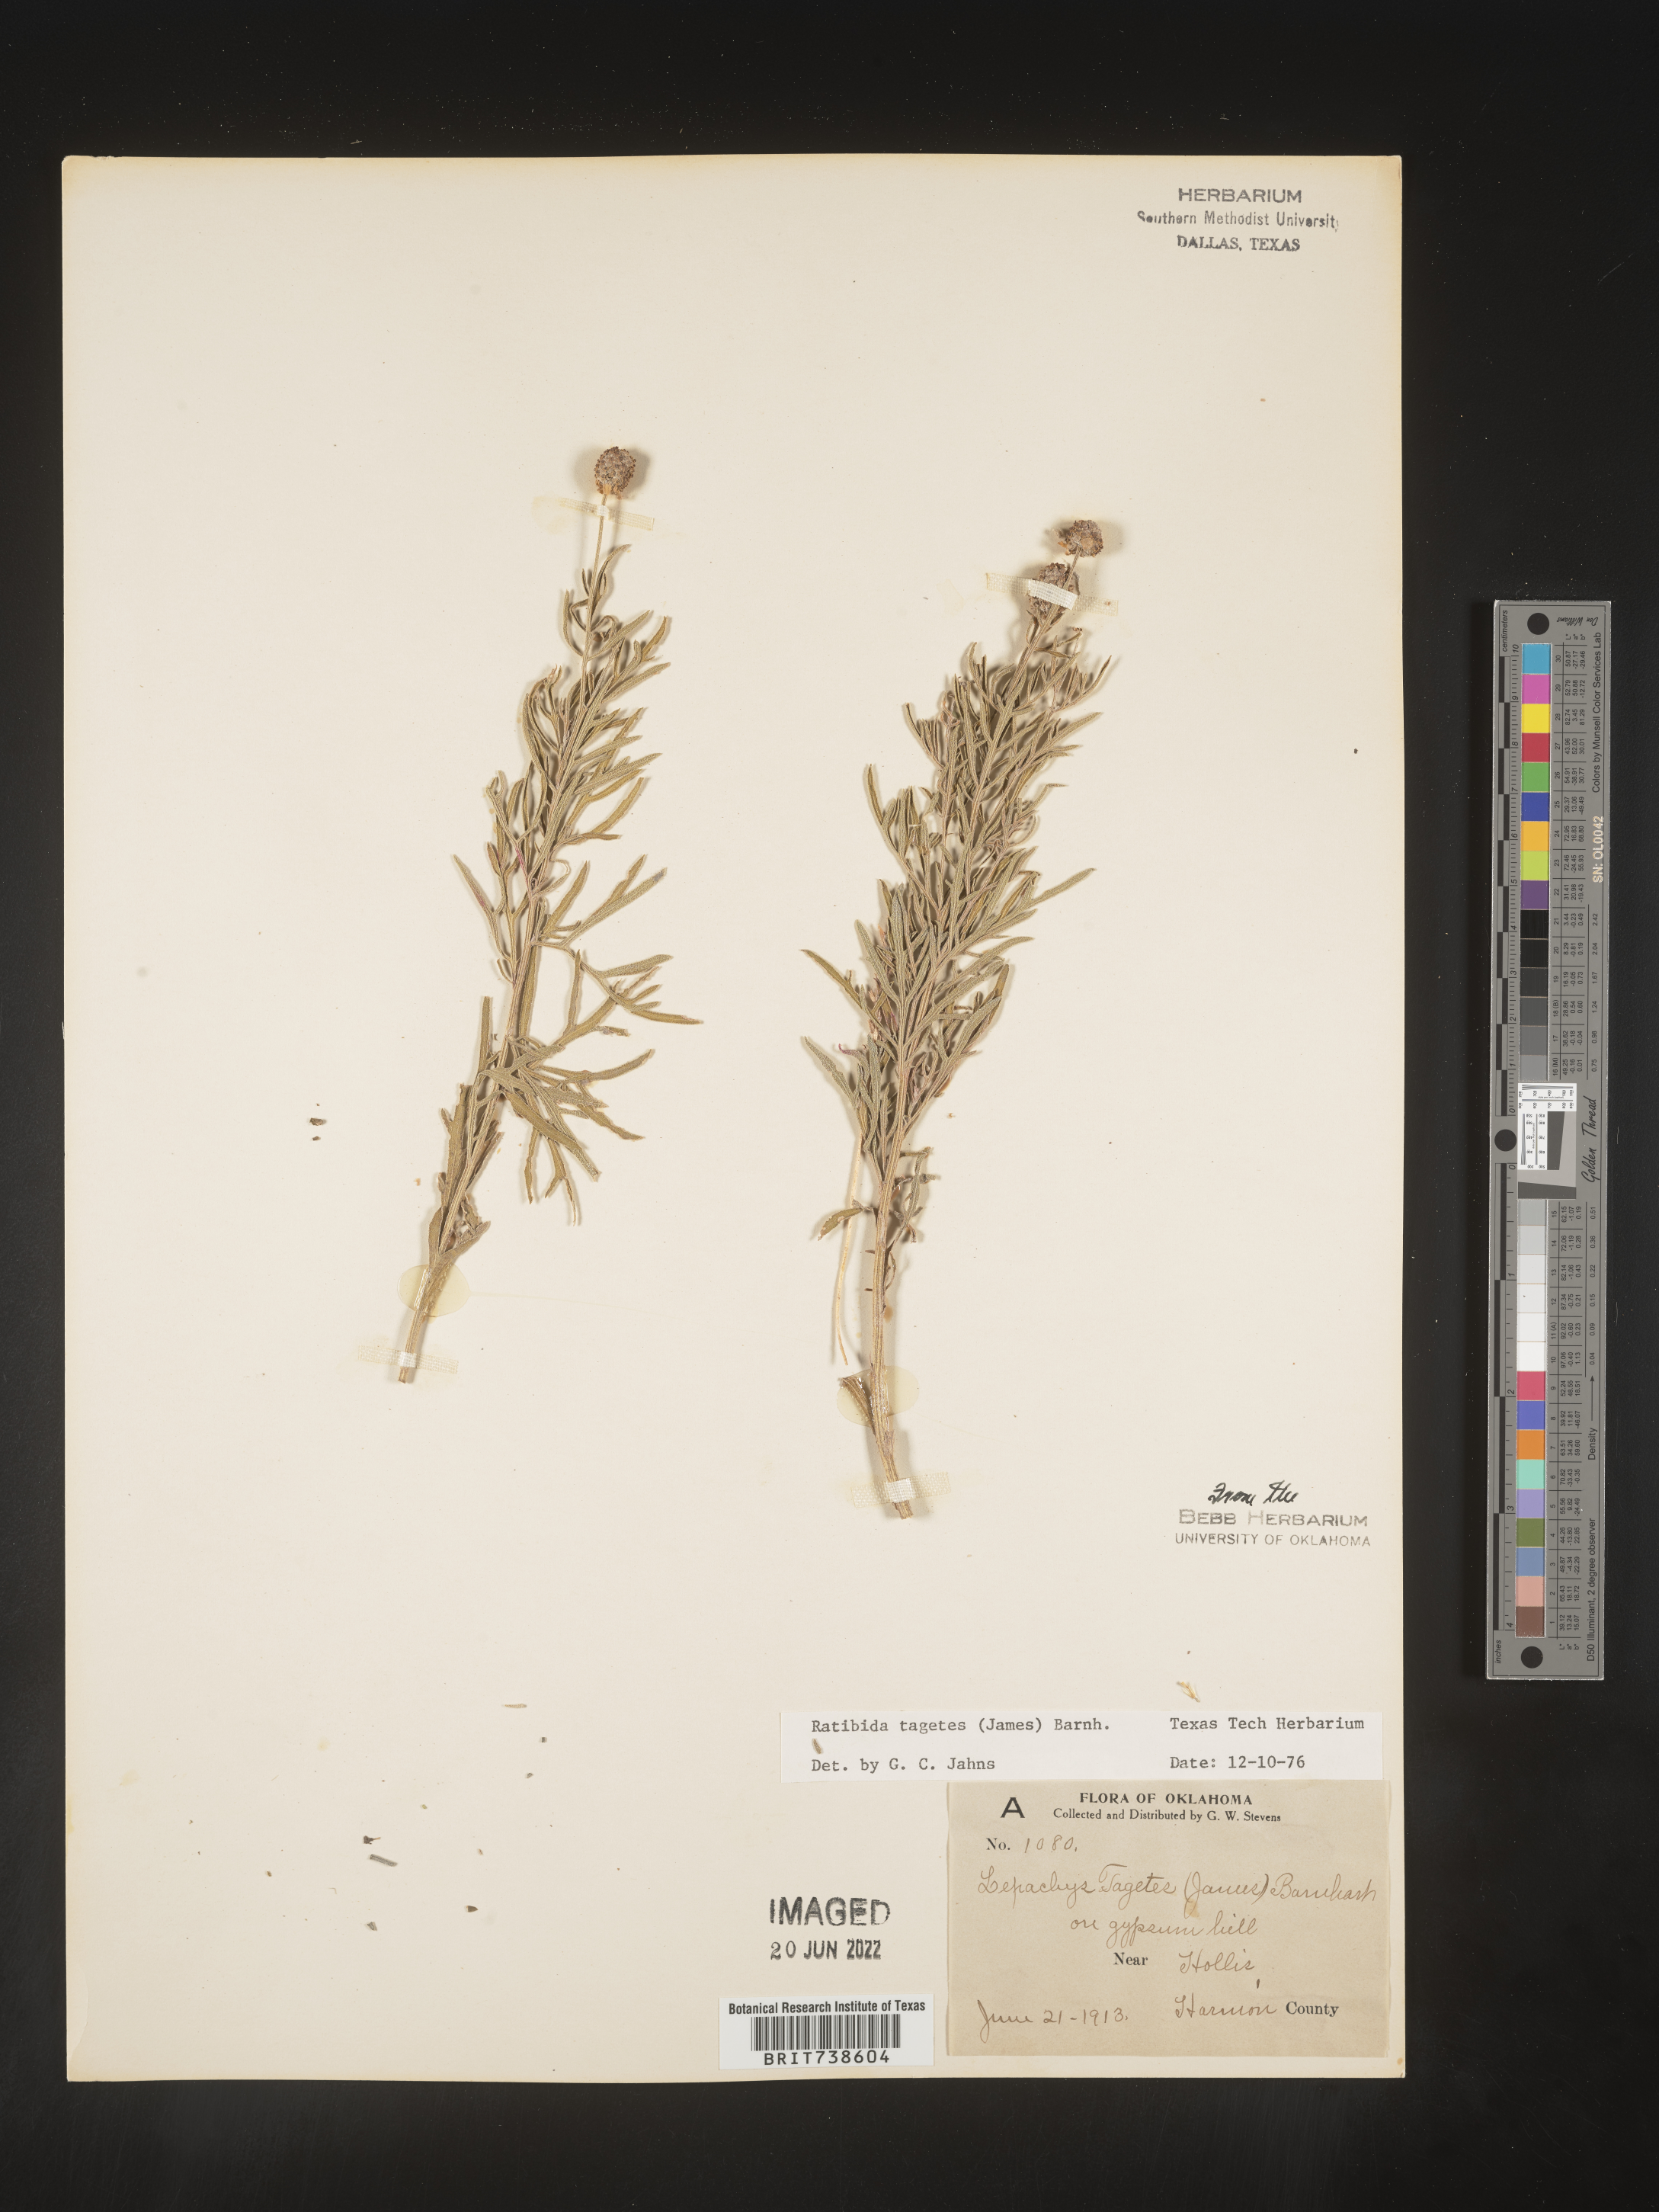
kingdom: Plantae
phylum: Tracheophyta
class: Magnoliopsida
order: Asterales
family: Asteraceae
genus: Ratibida
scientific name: Ratibida tagetes
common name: Green mexican-hat
